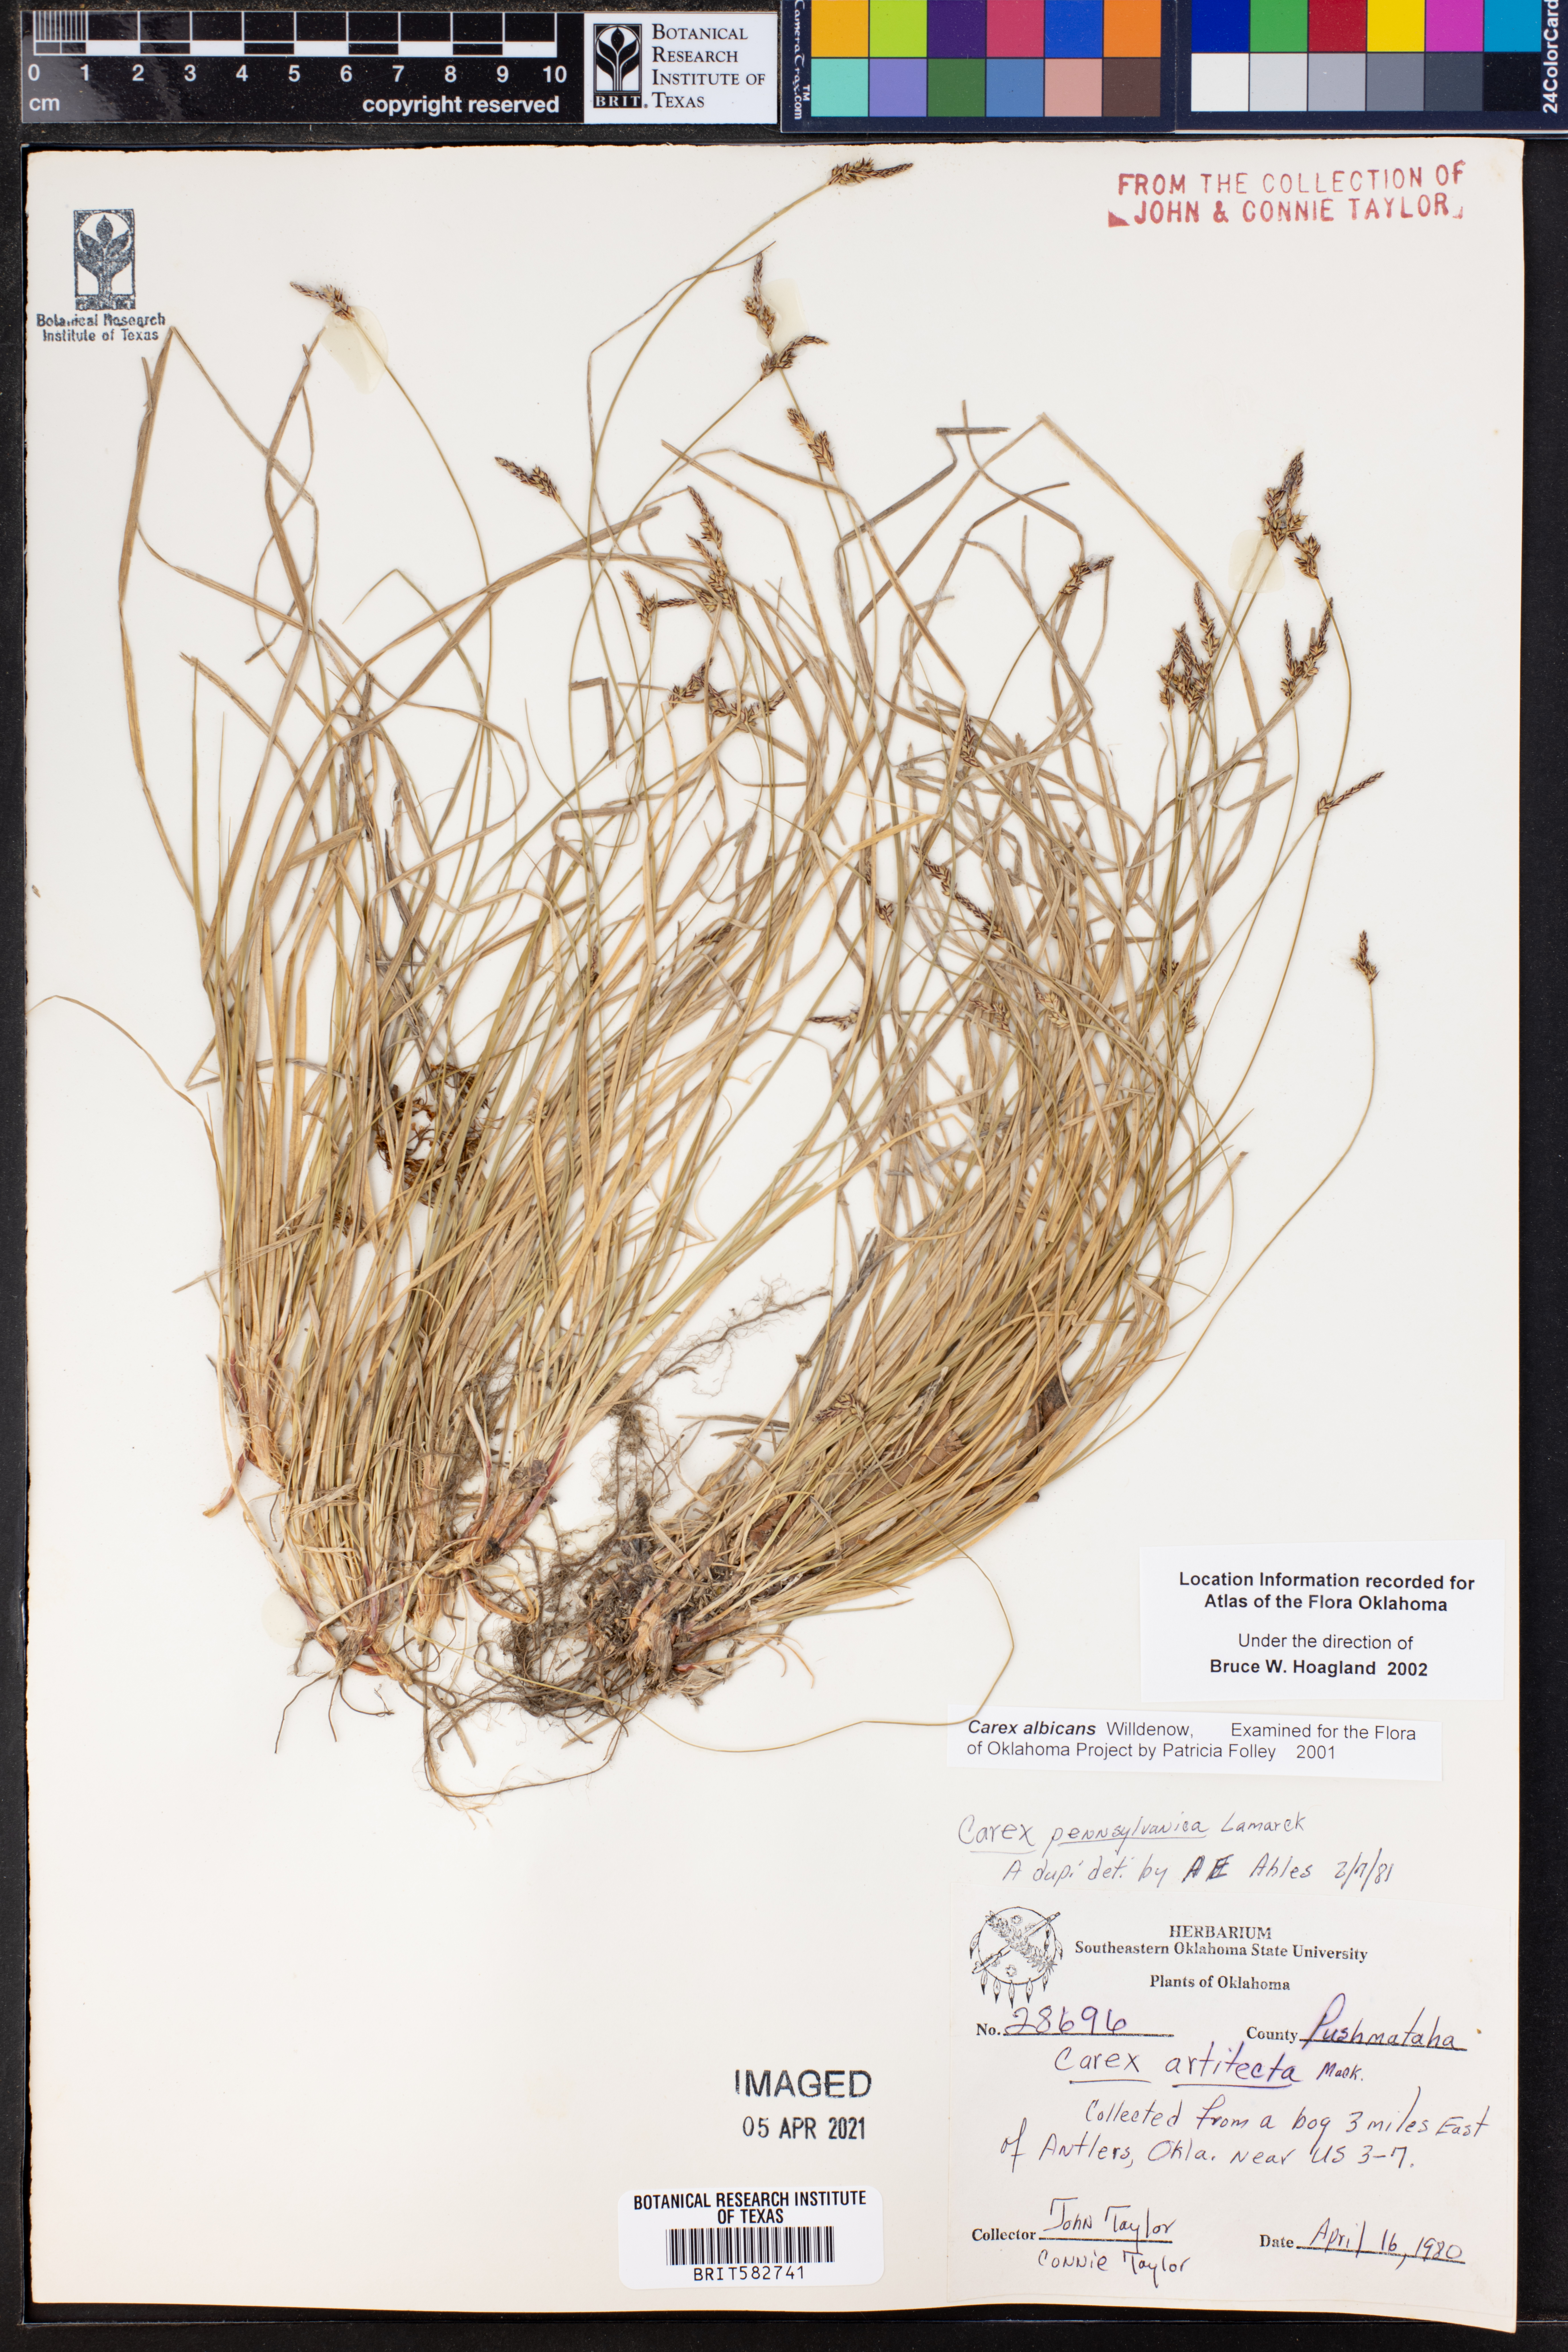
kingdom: Plantae
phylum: Tracheophyta
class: Liliopsida
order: Poales
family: Cyperaceae
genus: Carex
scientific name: Carex albicans
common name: Bellow-beaked sedge
